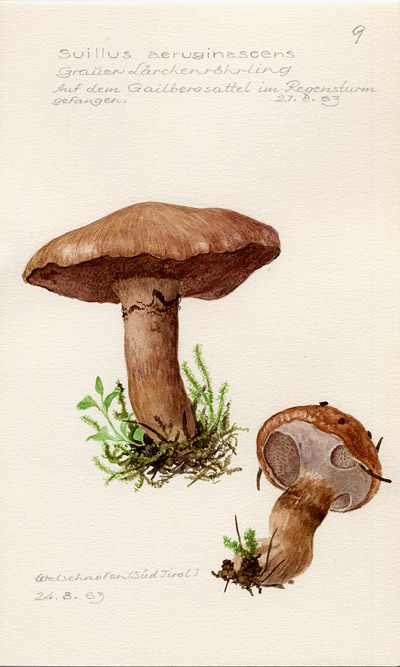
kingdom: Fungi
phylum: Basidiomycota
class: Agaricomycetes
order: Boletales
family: Suillaceae
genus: Suillus
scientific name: Suillus
